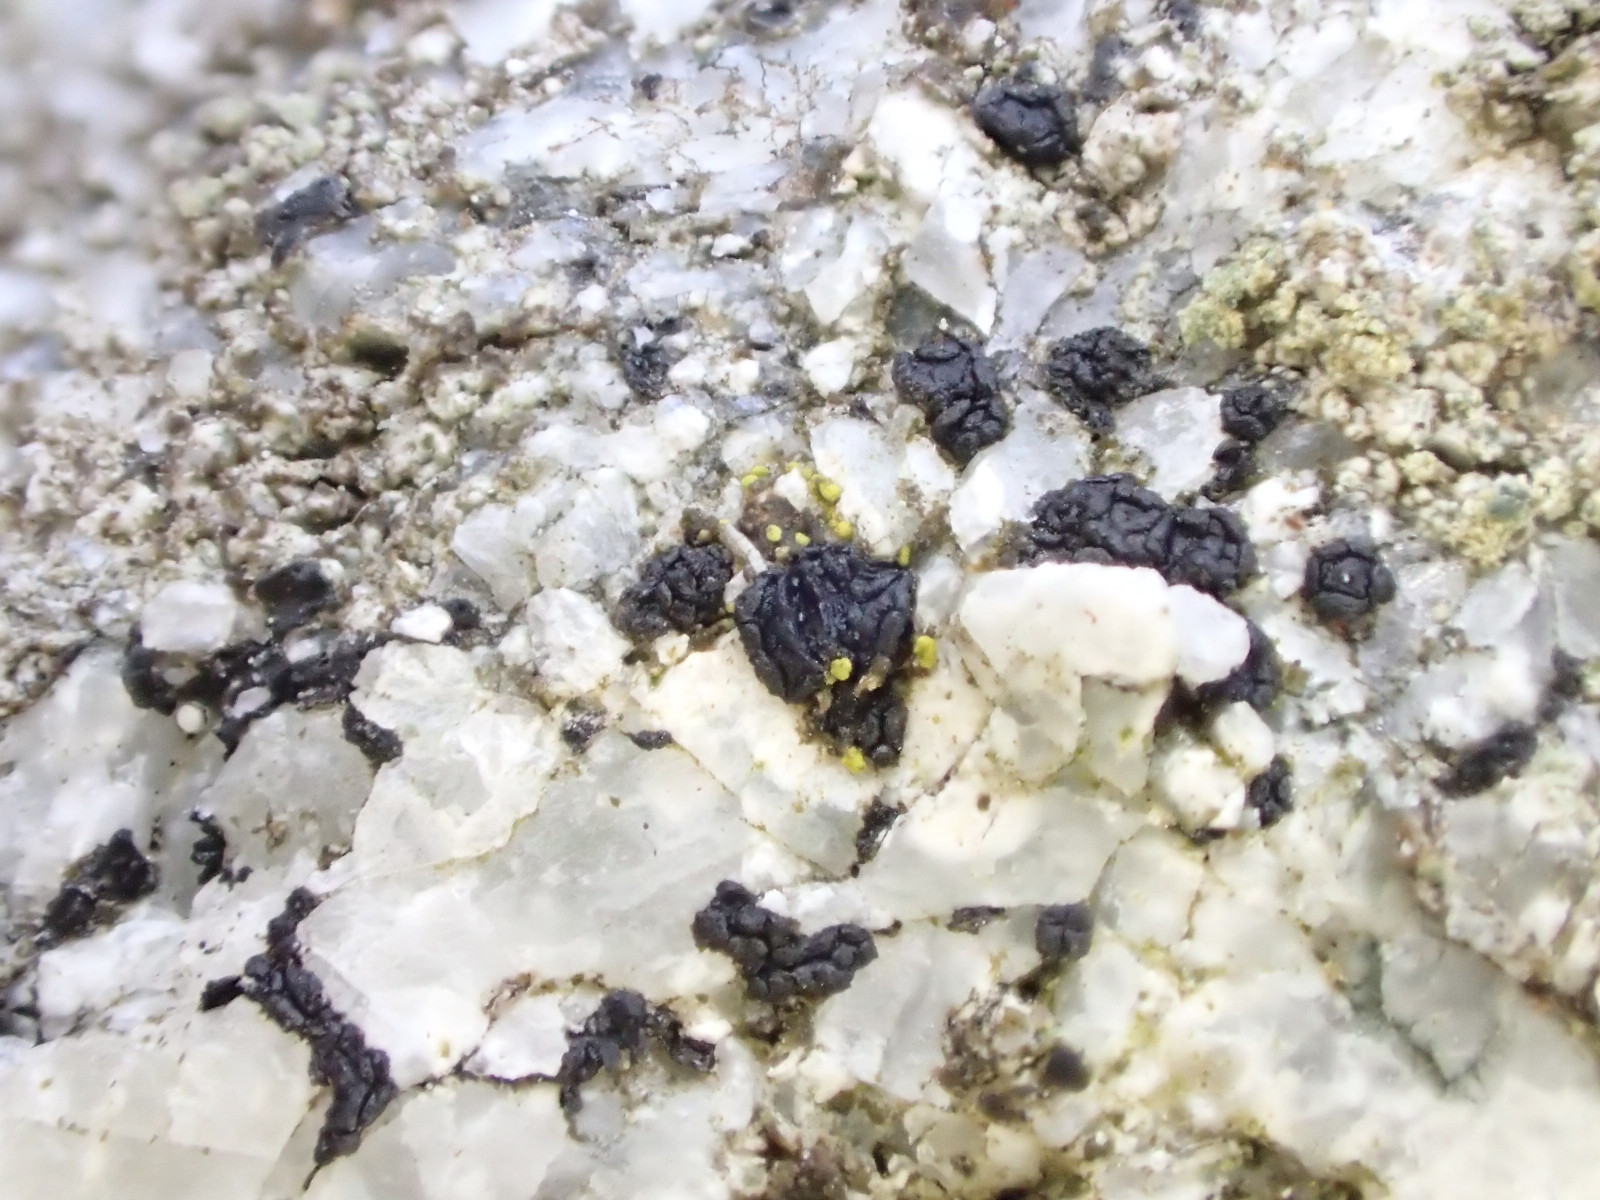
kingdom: Fungi
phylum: Ascomycota
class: Lecanoromycetes
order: Acarosporales
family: Acarosporaceae
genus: Acarospora
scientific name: Acarospora privigna
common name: sort foldekantlav
